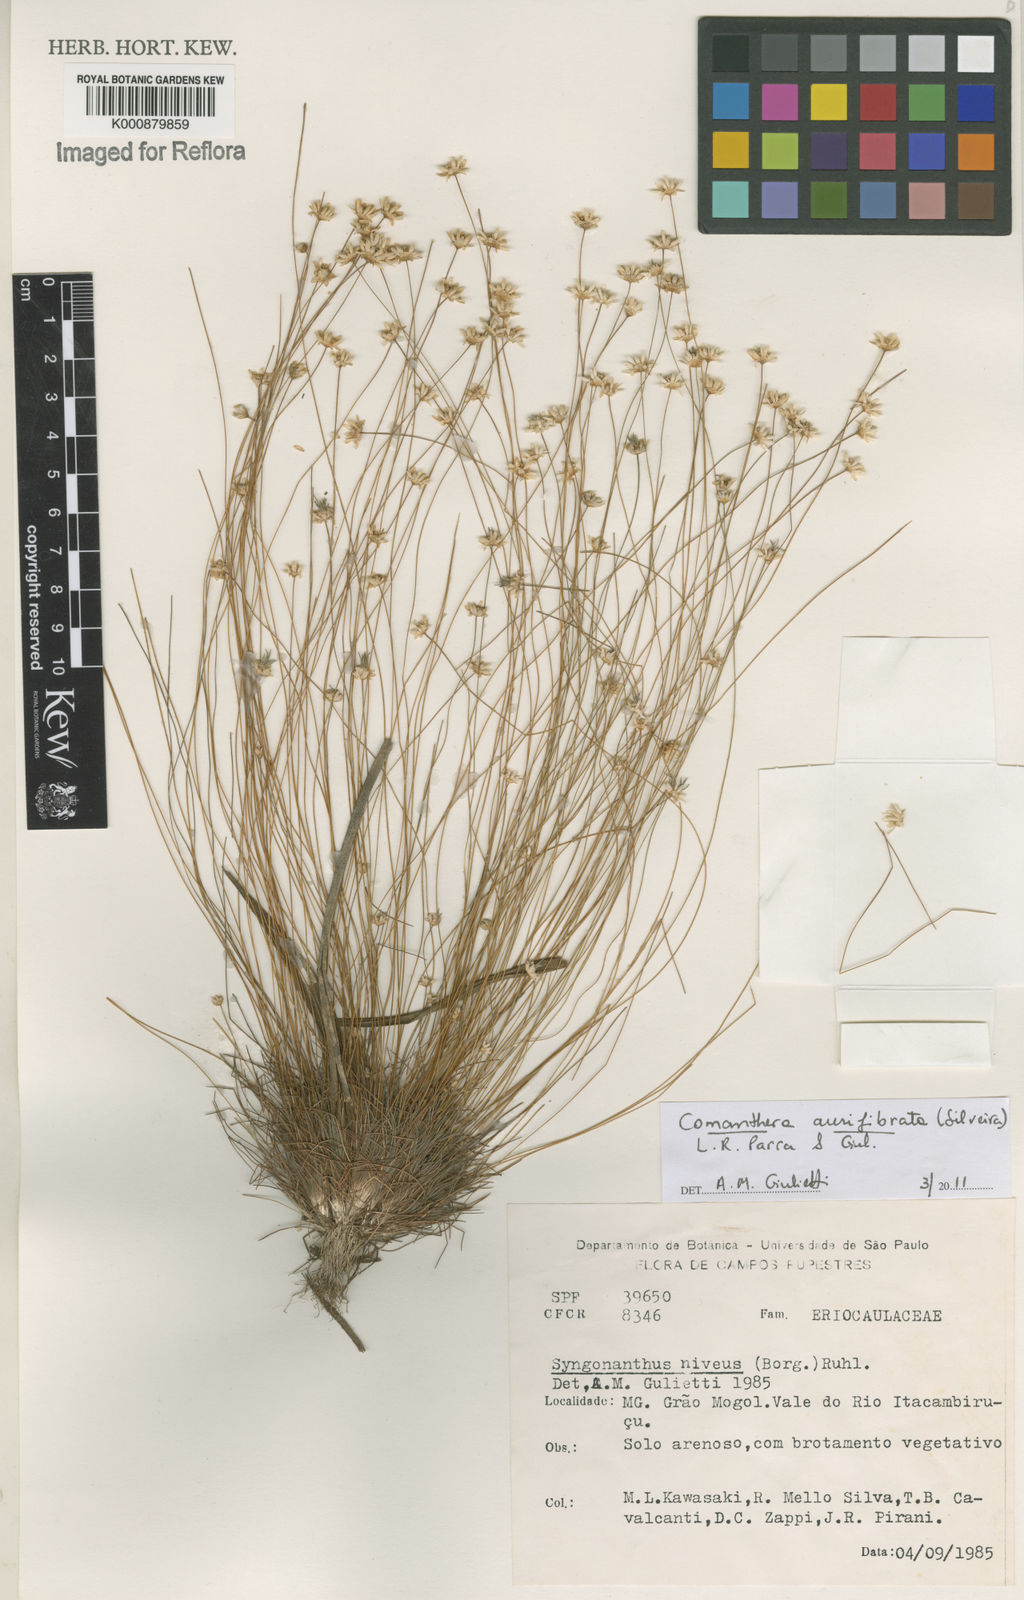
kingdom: Plantae
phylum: Tracheophyta
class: Liliopsida
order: Poales
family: Eriocaulaceae
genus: Comanthera
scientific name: Comanthera aurifibrata
